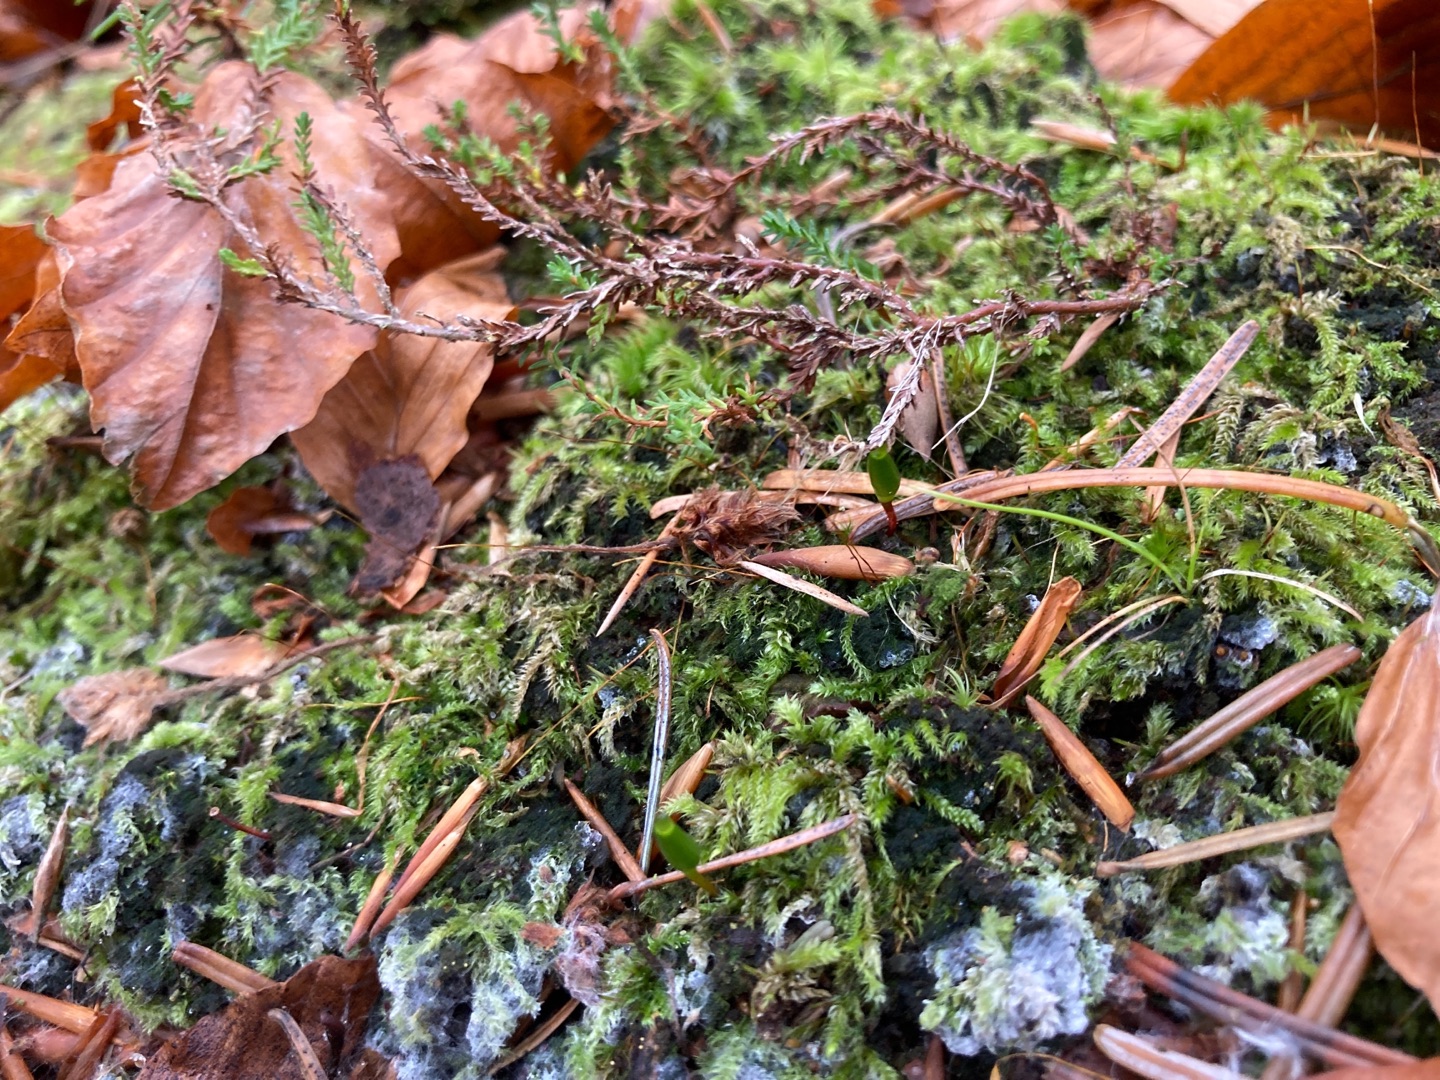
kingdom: Plantae
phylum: Bryophyta
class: Bryopsida
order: Buxbaumiales
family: Buxbaumiaceae
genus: Buxbaumia
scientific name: Buxbaumia viridis
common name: Grøn buxbaumia
